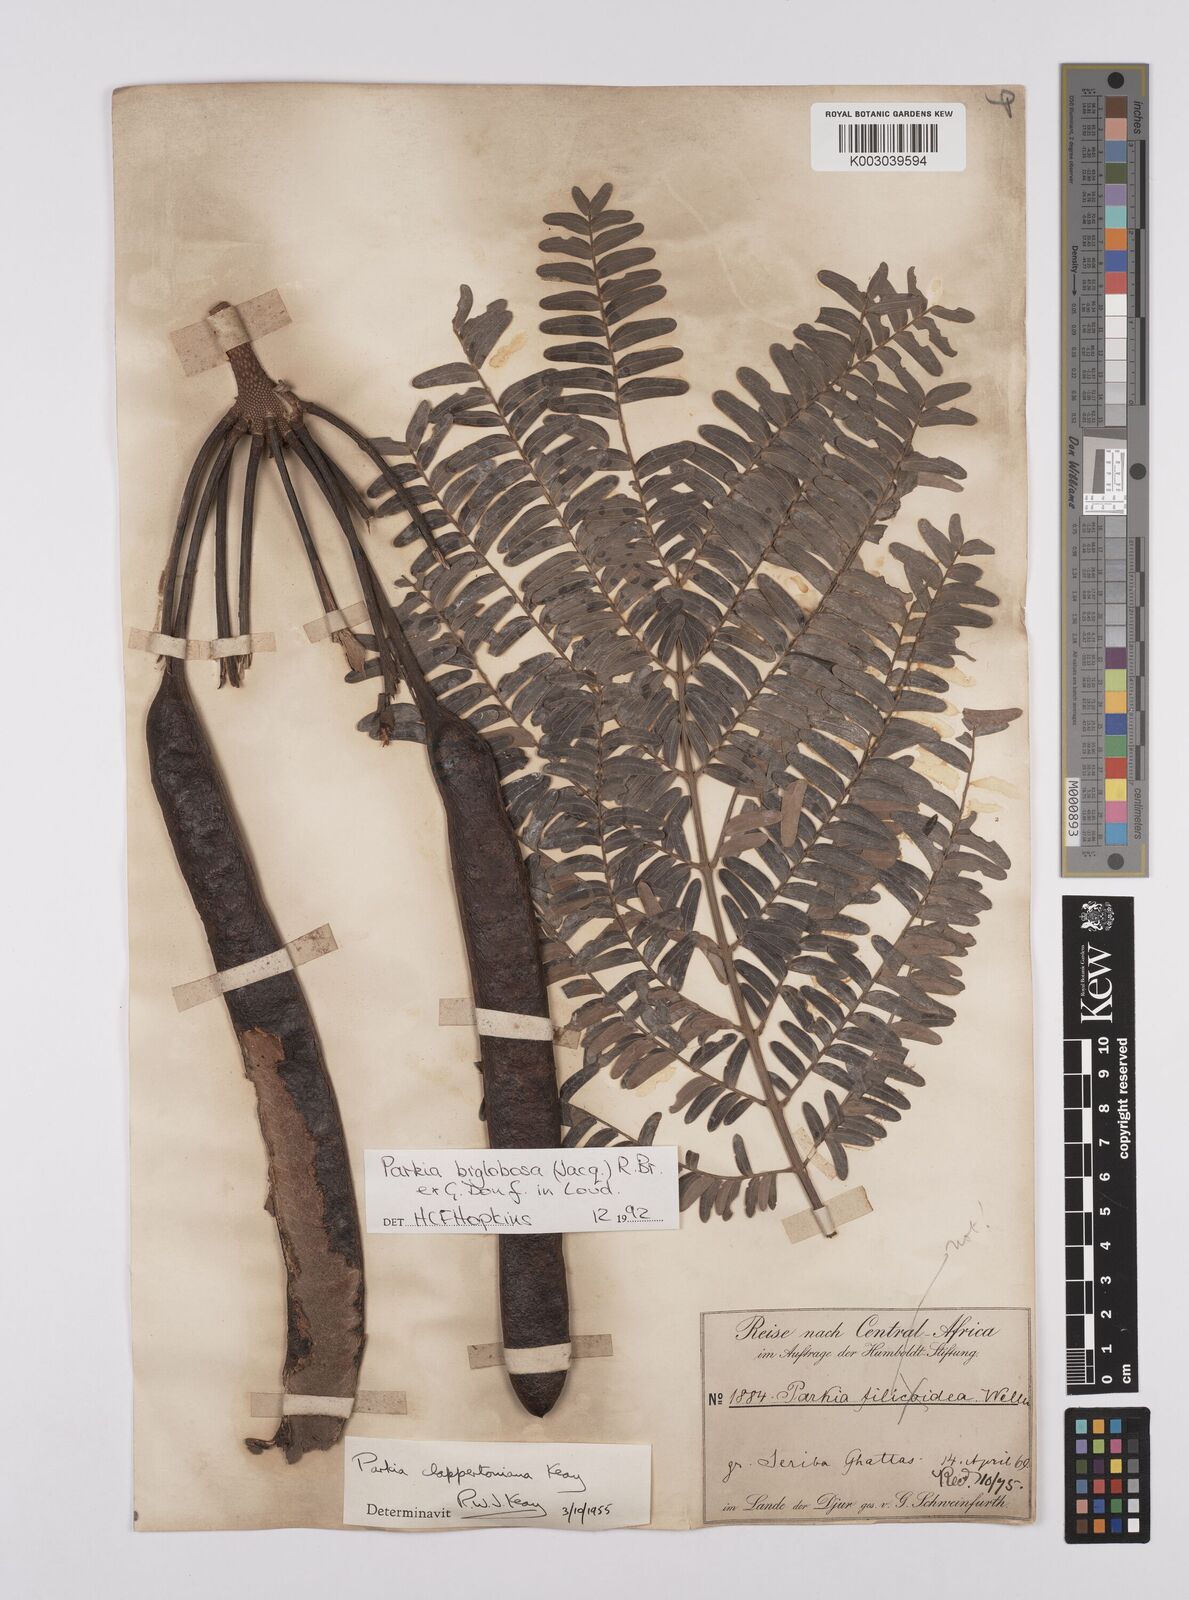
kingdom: Plantae
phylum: Tracheophyta
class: Magnoliopsida
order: Fabales
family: Fabaceae
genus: Parkia
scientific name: Parkia biglobosa
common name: African locust-bean
